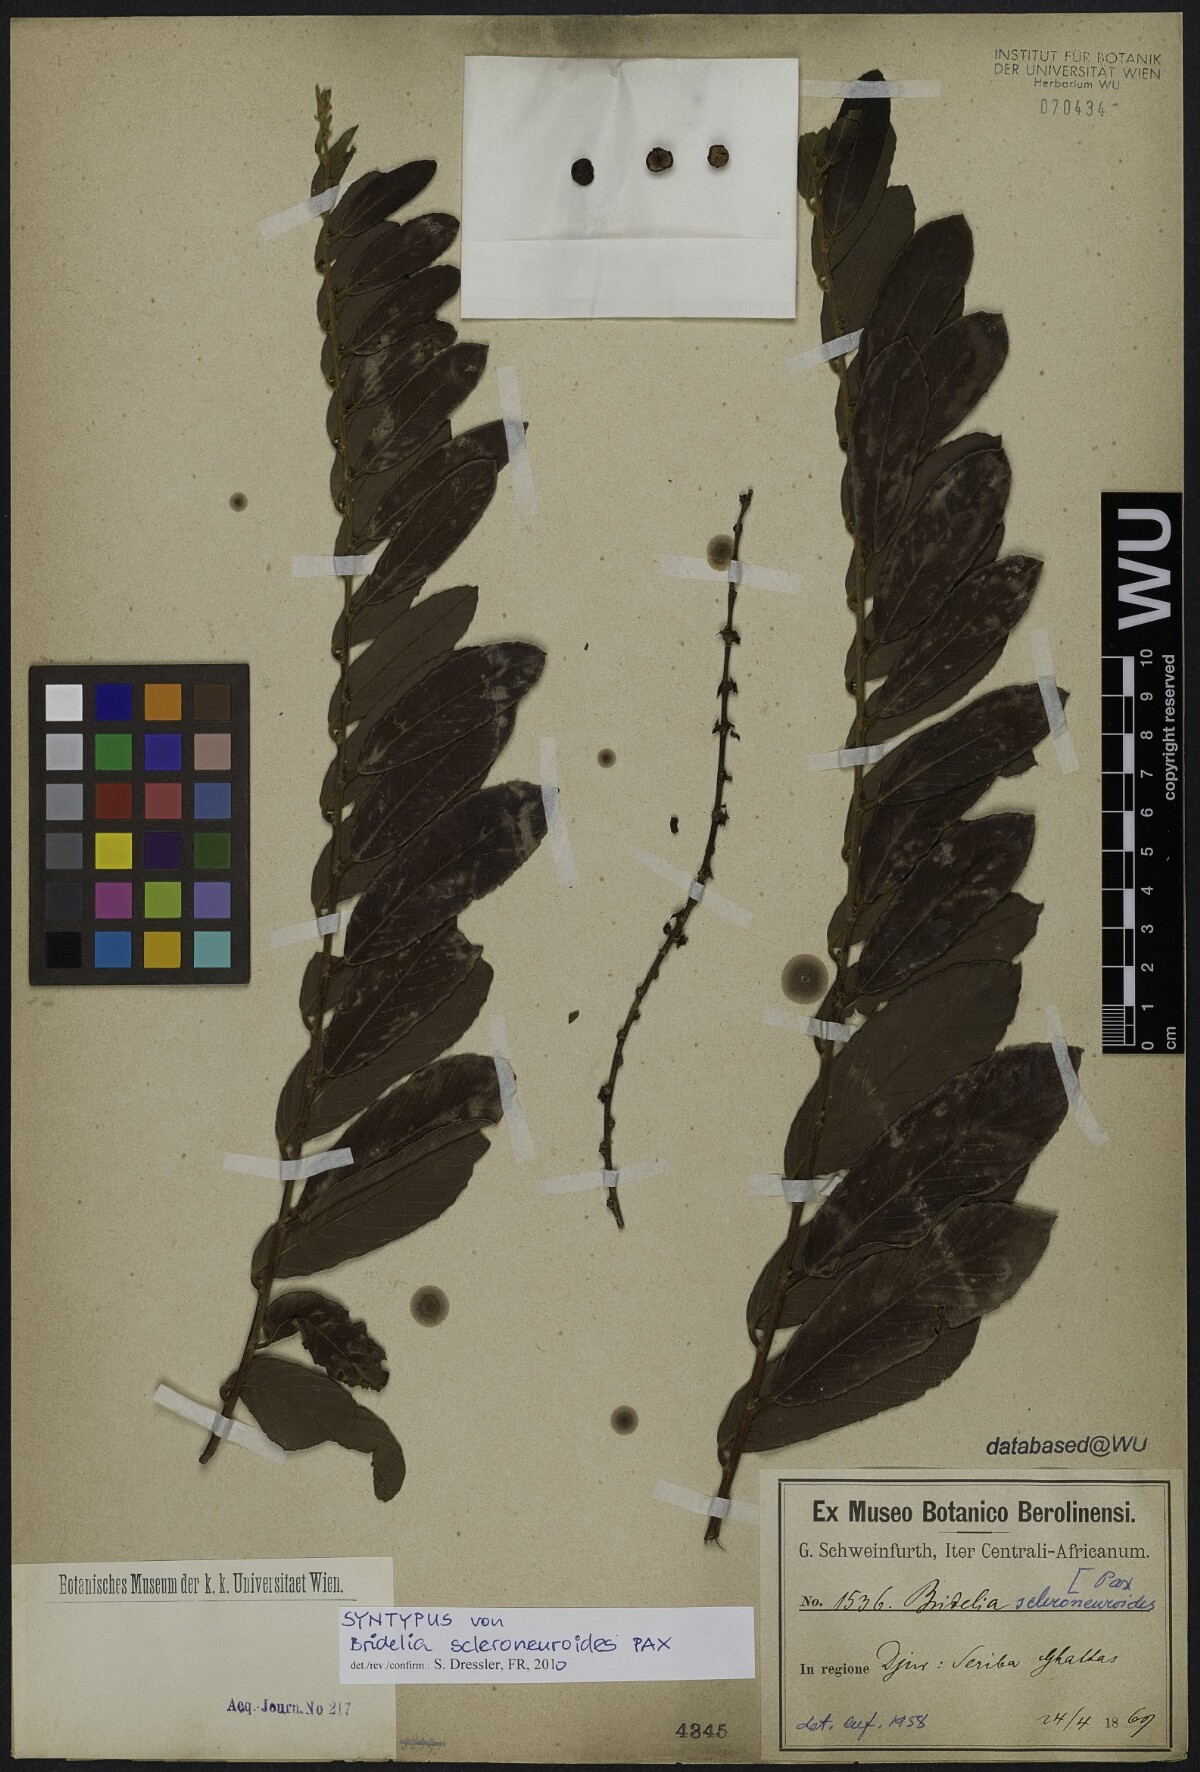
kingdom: Plantae
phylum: Tracheophyta
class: Magnoliopsida
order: Malpighiales
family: Phyllanthaceae
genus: Bridelia
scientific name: Bridelia scleroneura
